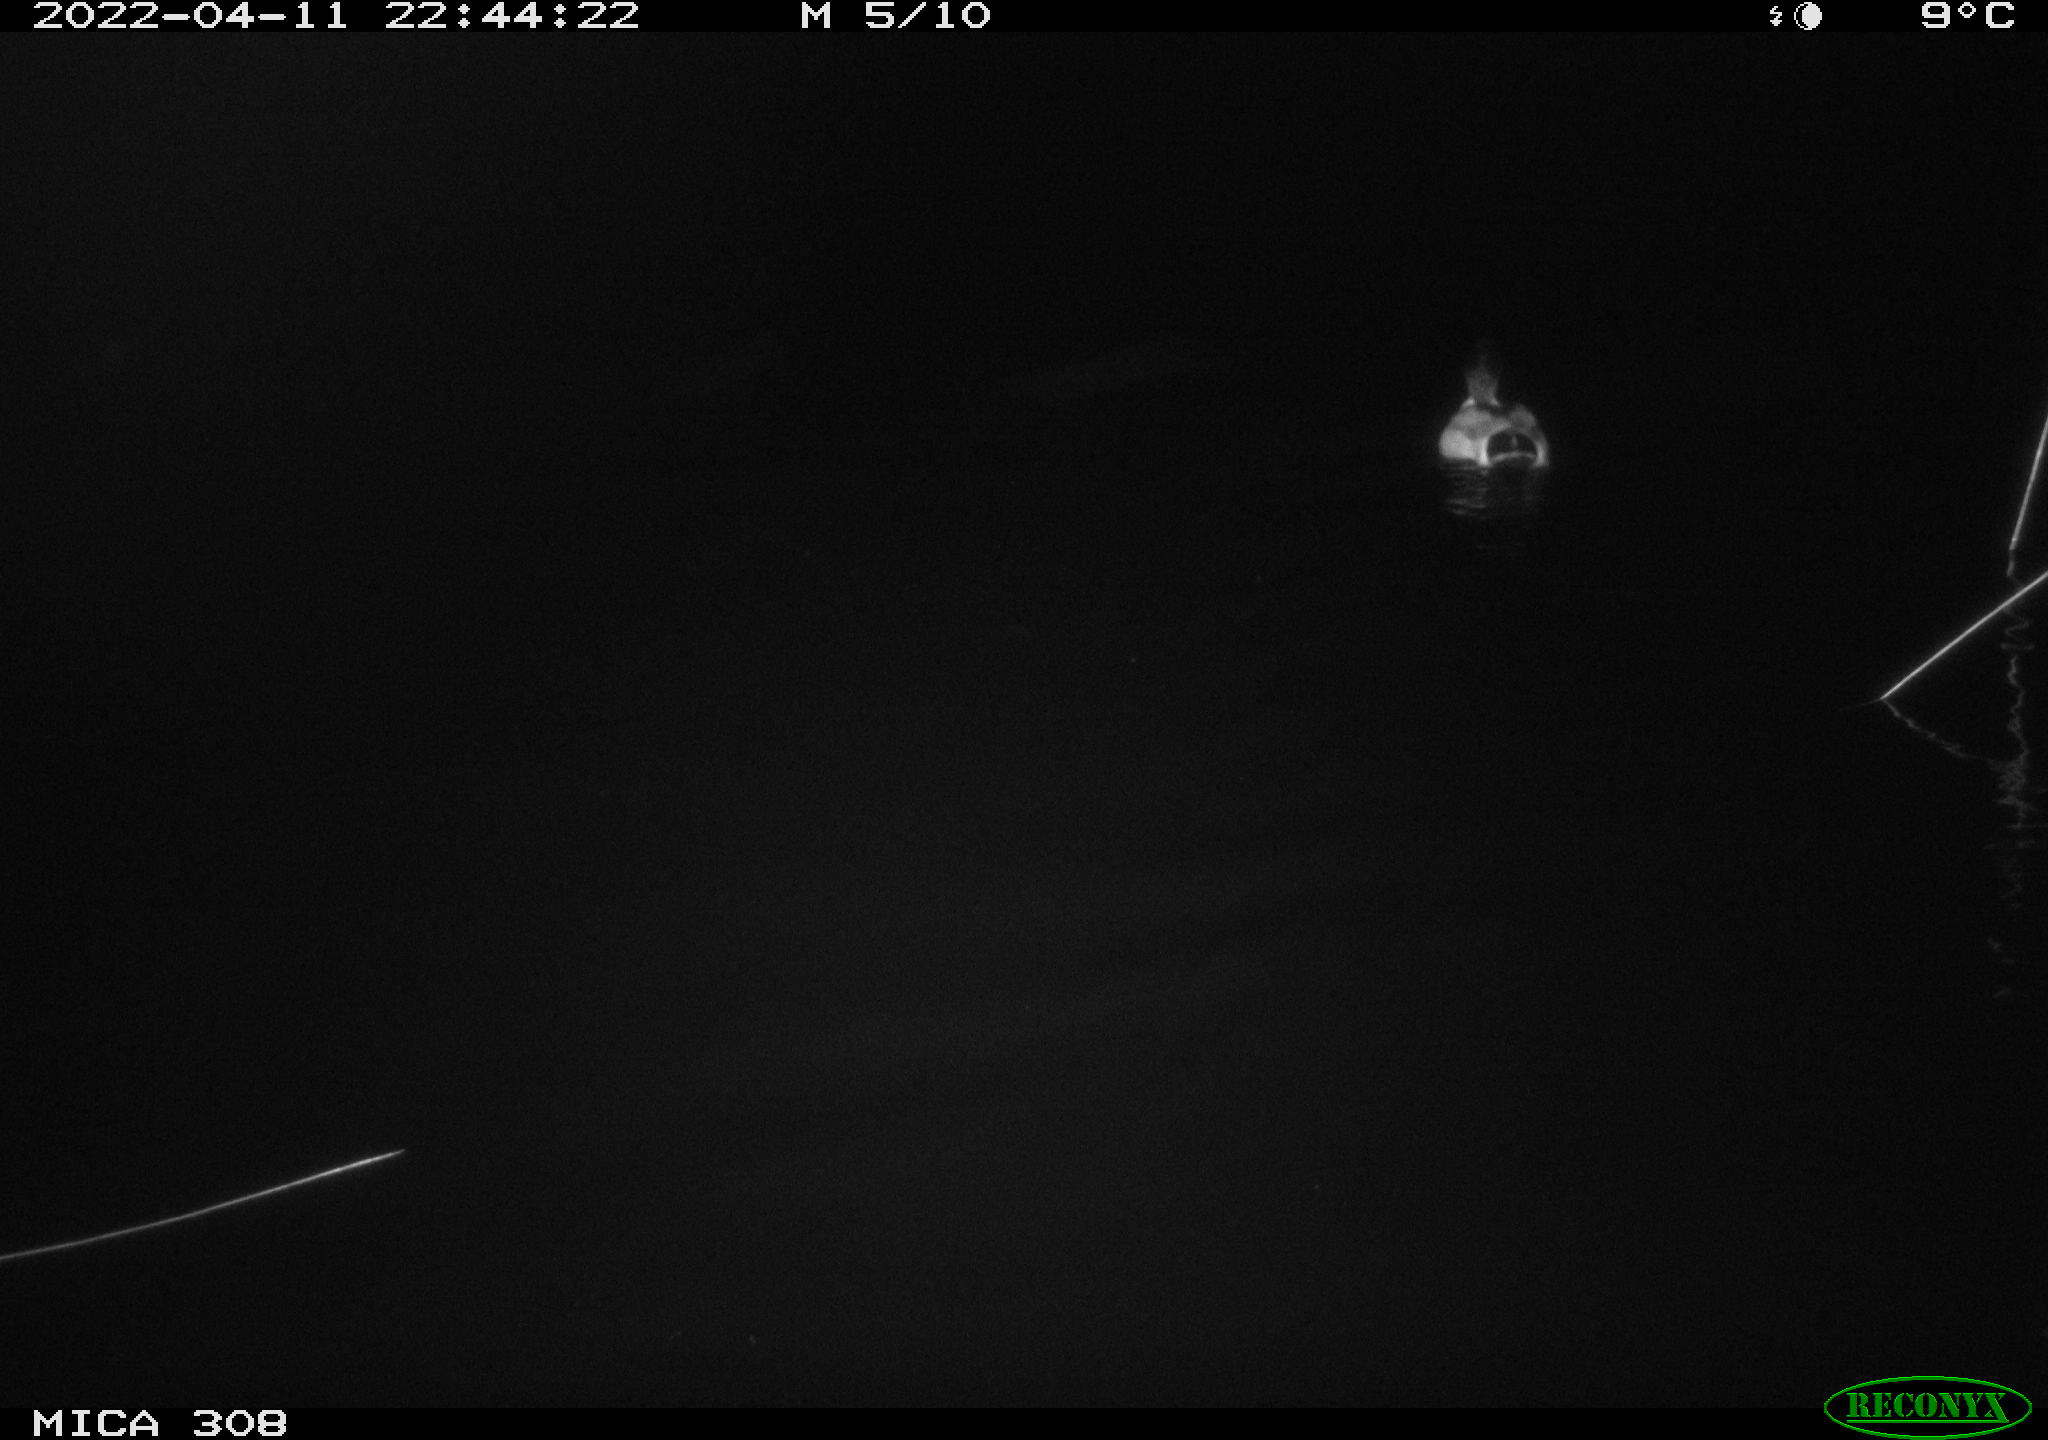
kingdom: Animalia
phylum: Chordata
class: Aves
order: Anseriformes
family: Anatidae
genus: Anas
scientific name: Anas platyrhynchos
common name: Mallard
